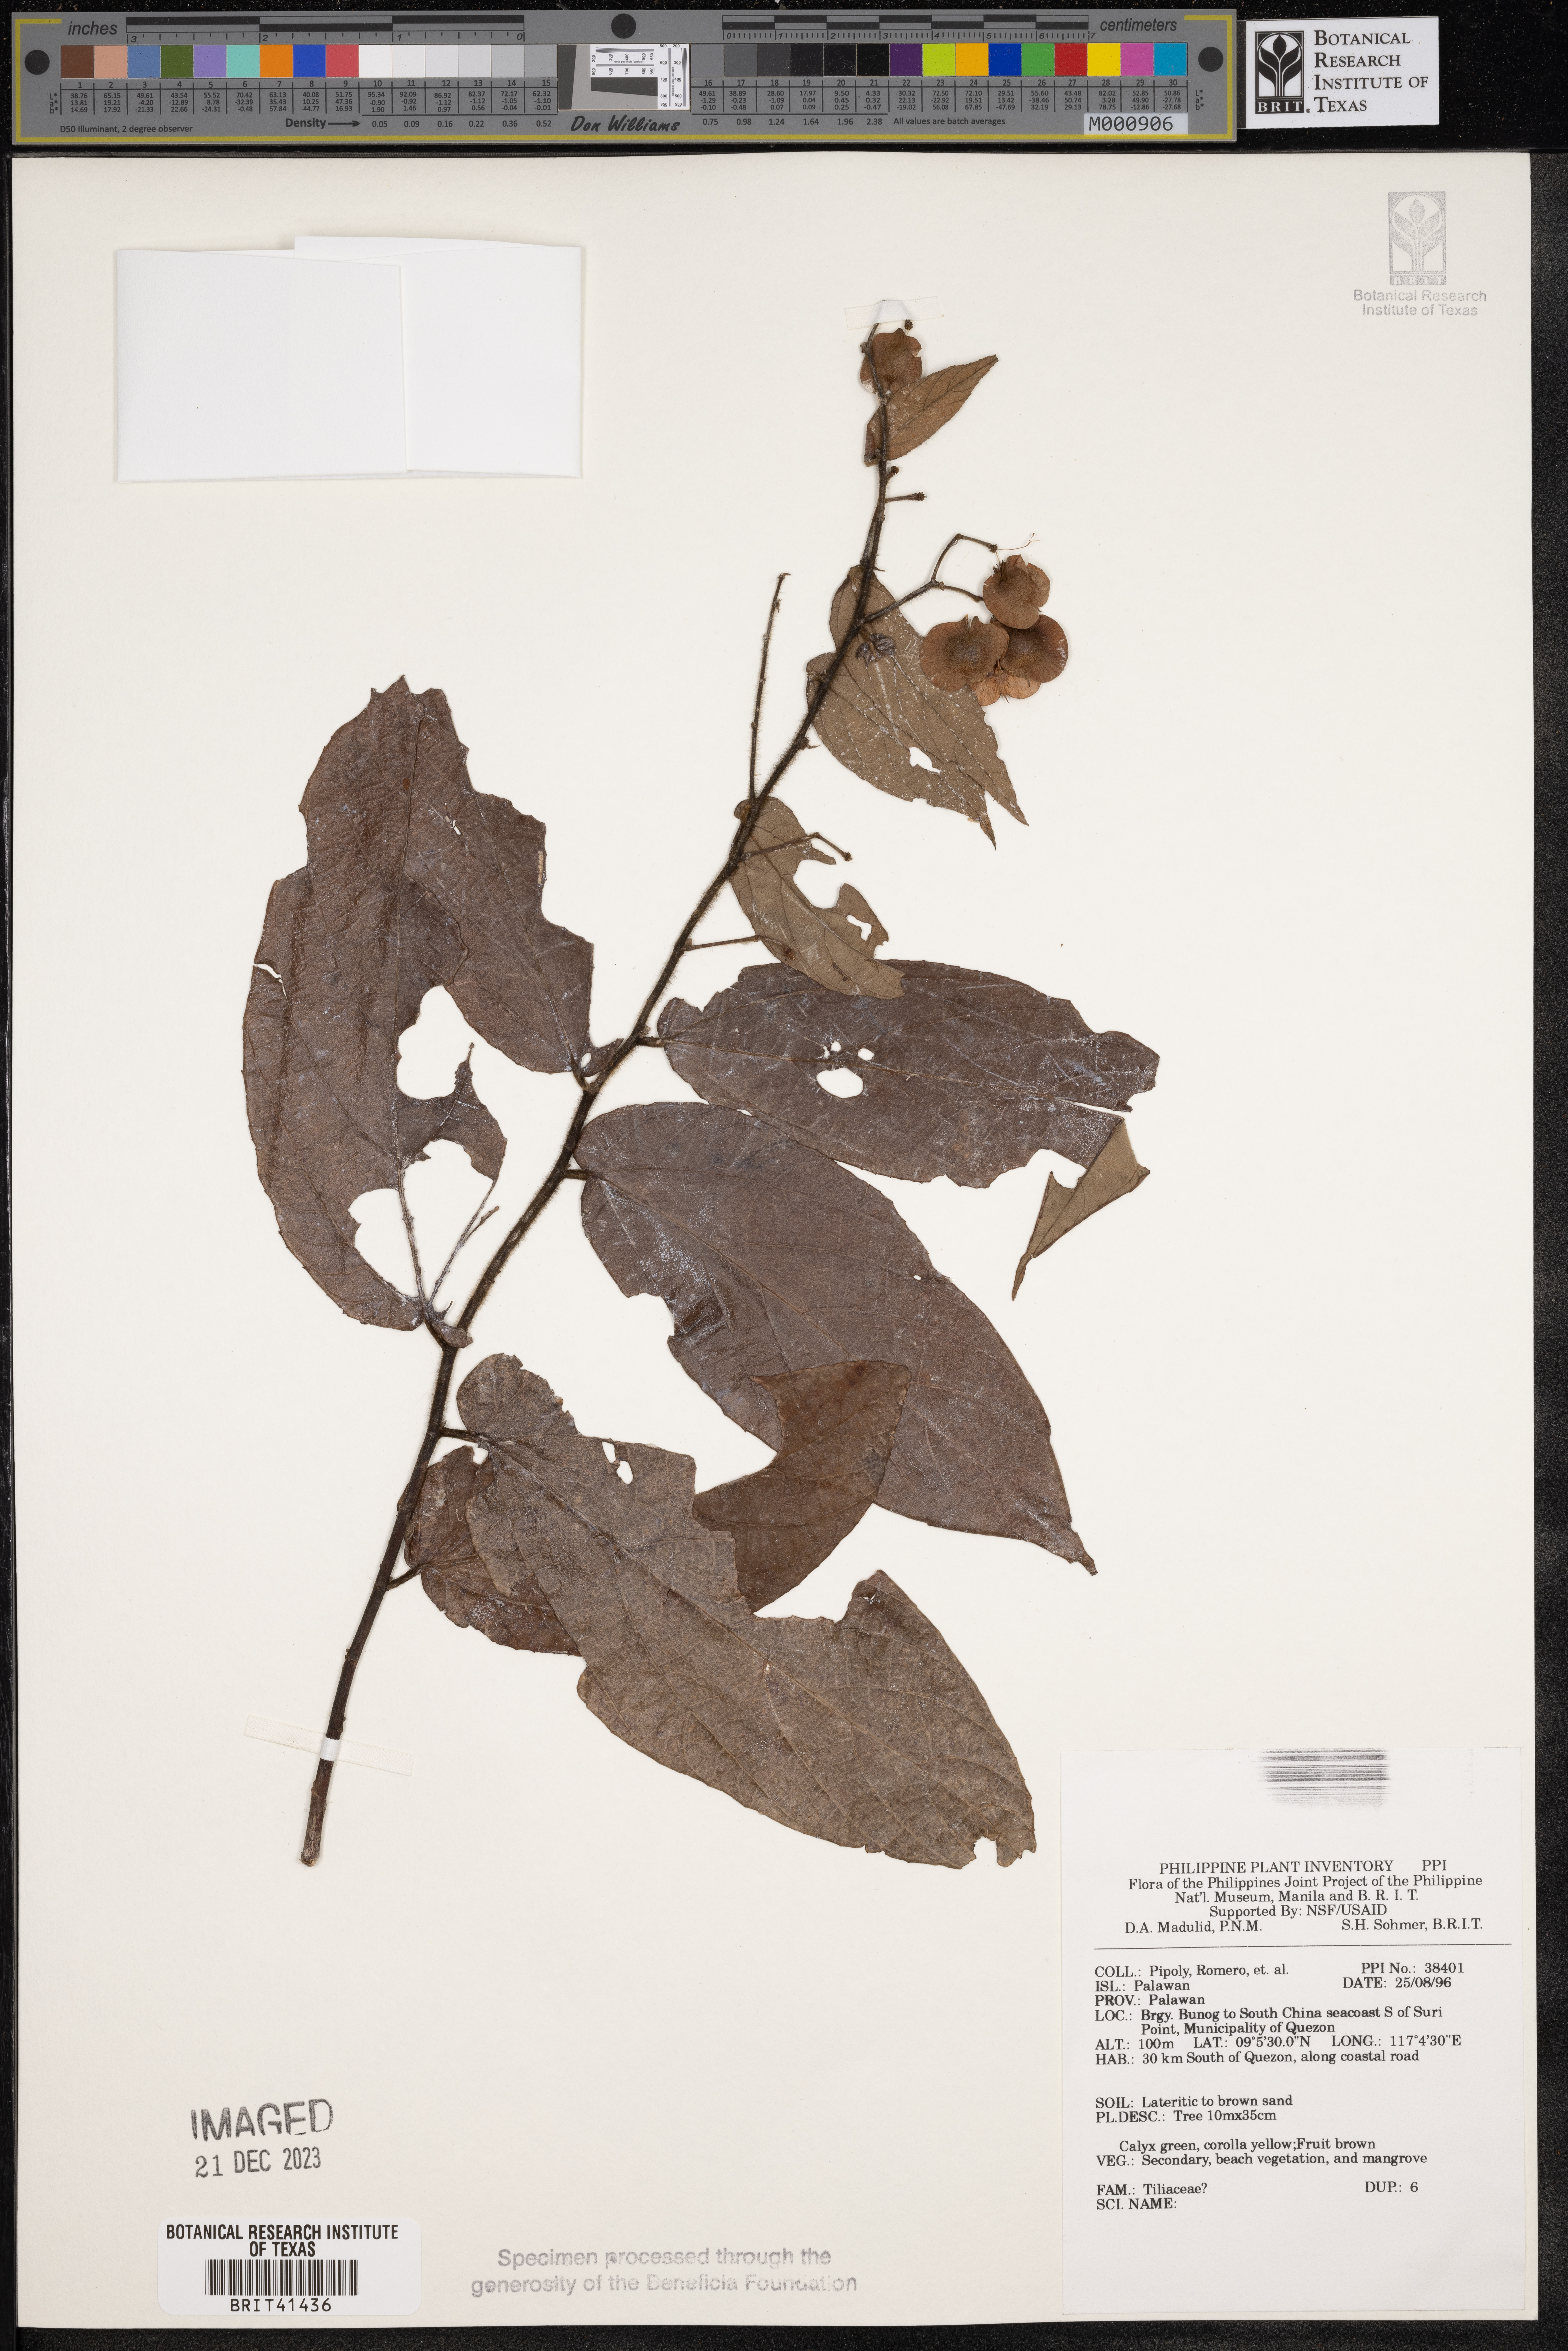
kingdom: Plantae
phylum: Tracheophyta
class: Magnoliopsida
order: Malvales
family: Tiliaceae
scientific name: Tiliaceae
